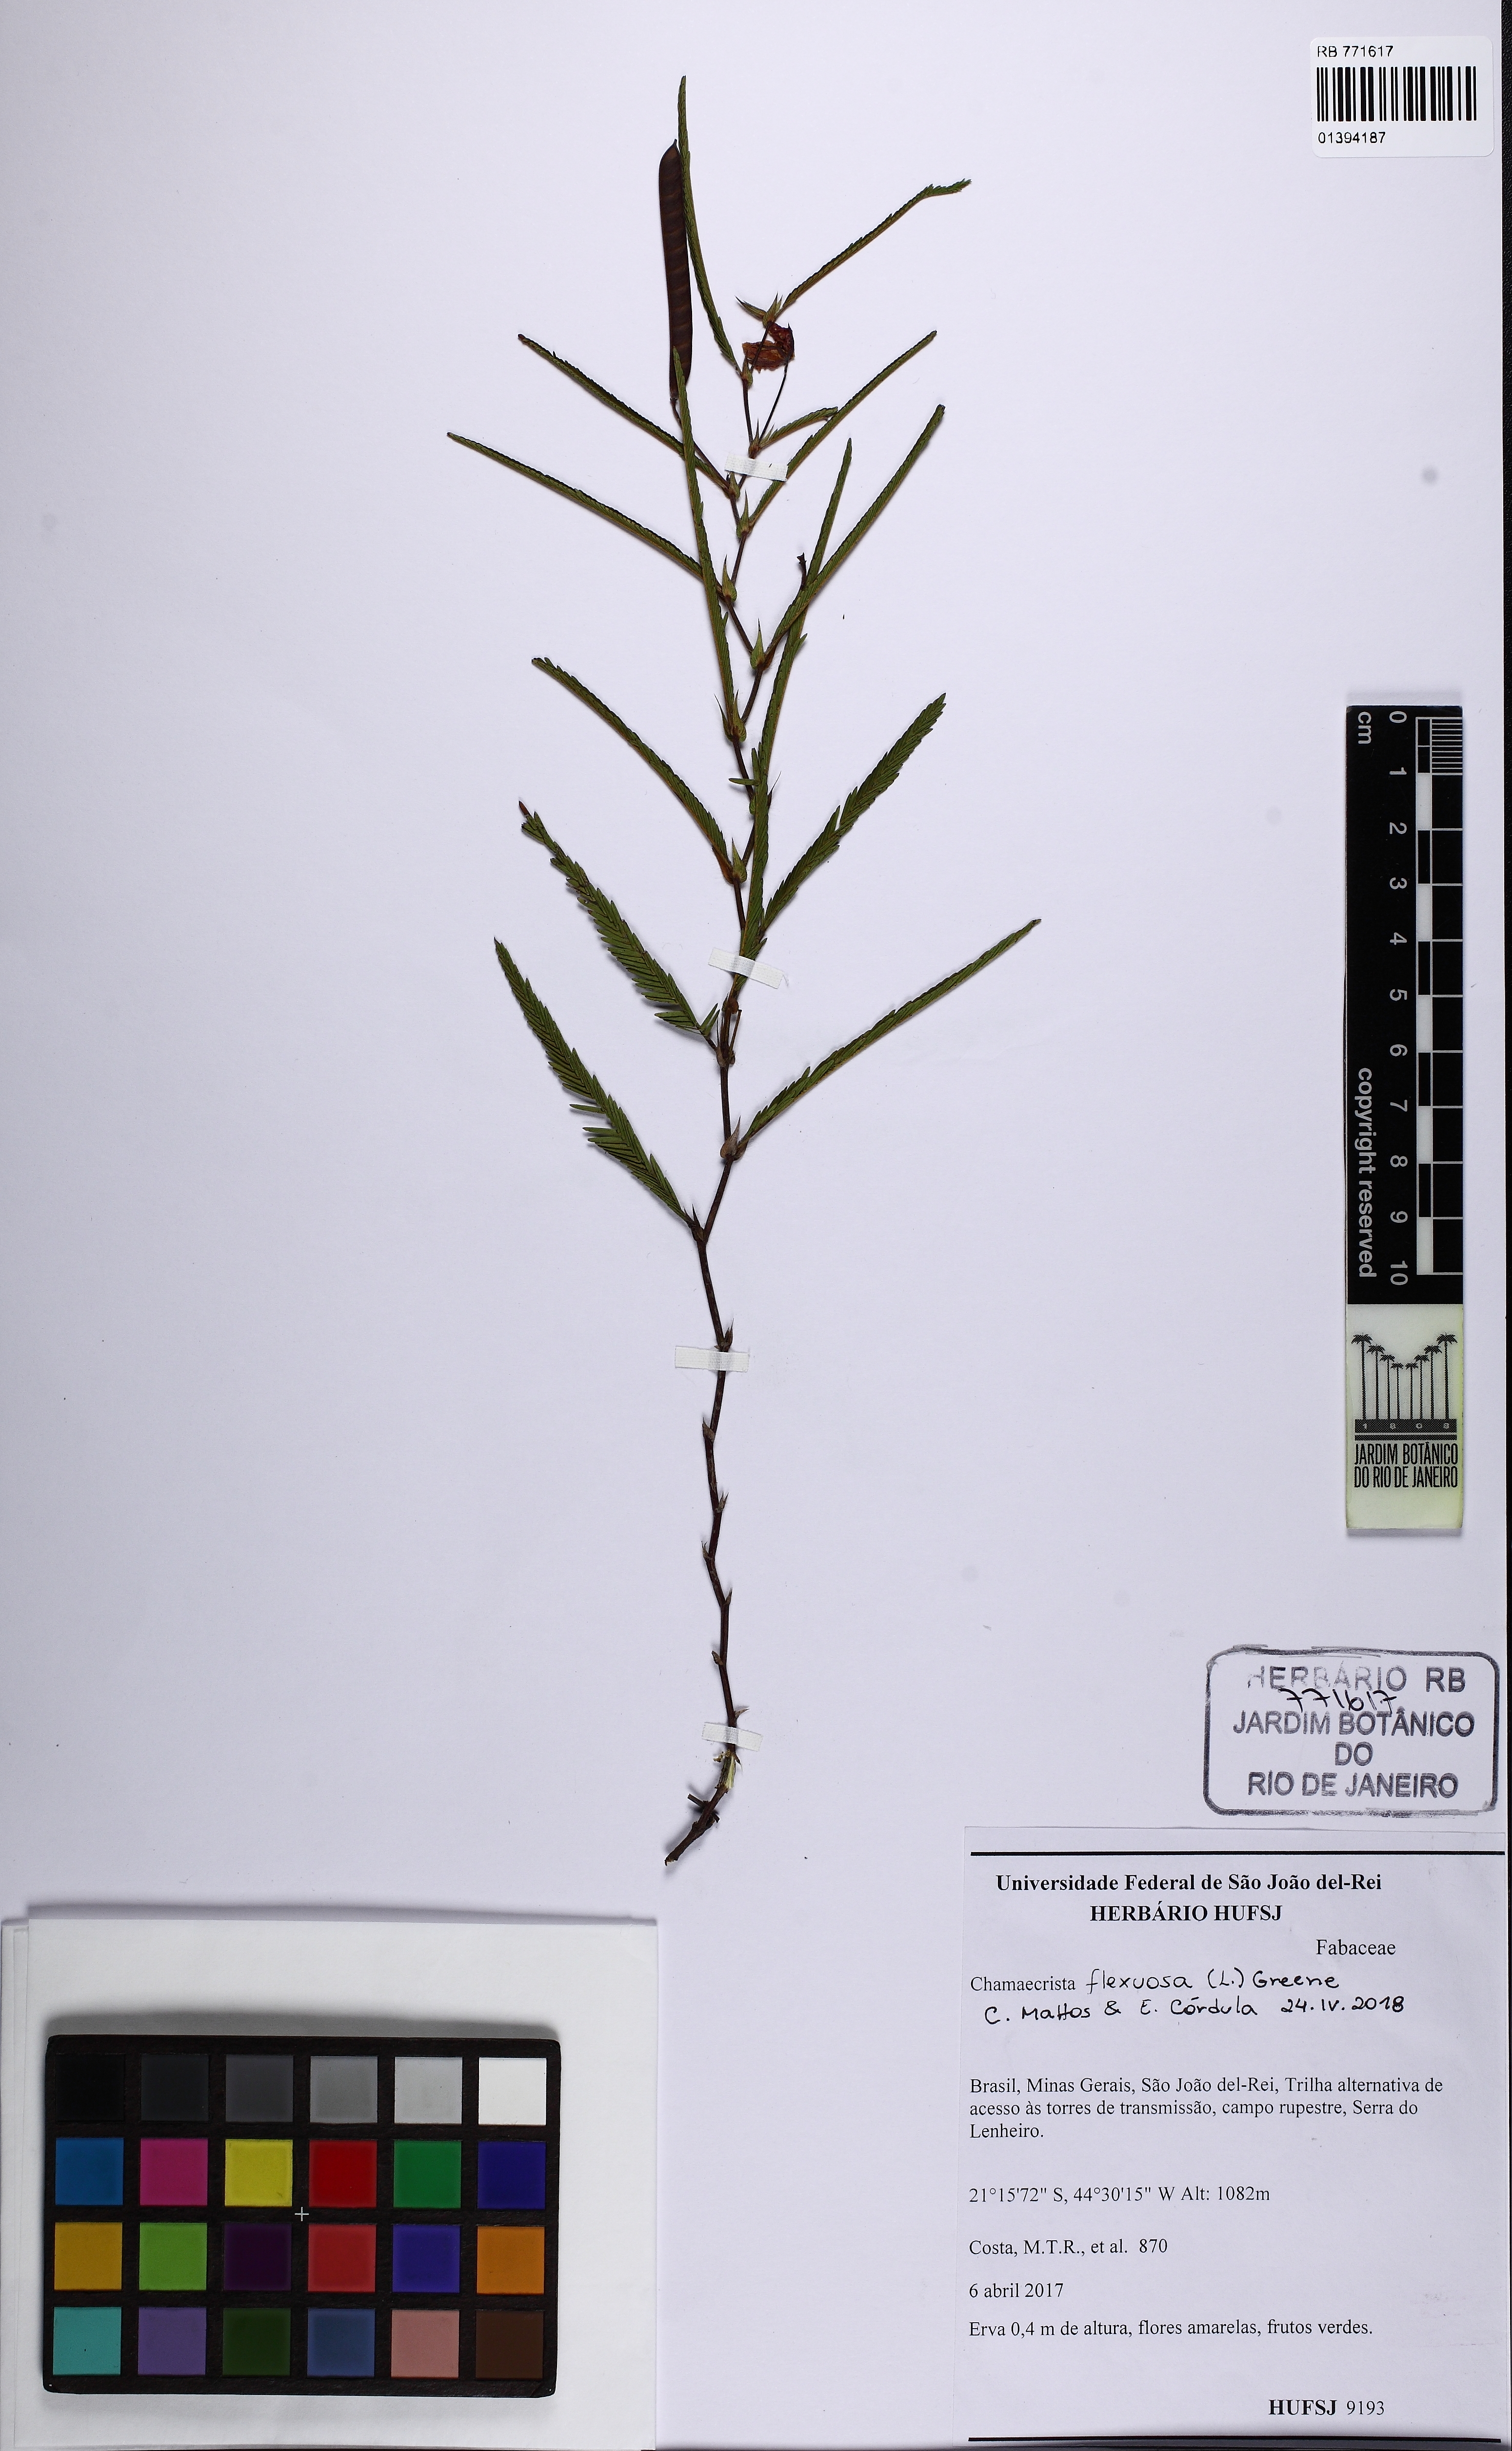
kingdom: Plantae
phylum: Tracheophyta
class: Magnoliopsida
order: Fabales
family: Fabaceae
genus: Chamaecrista
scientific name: Chamaecrista flexuosa
